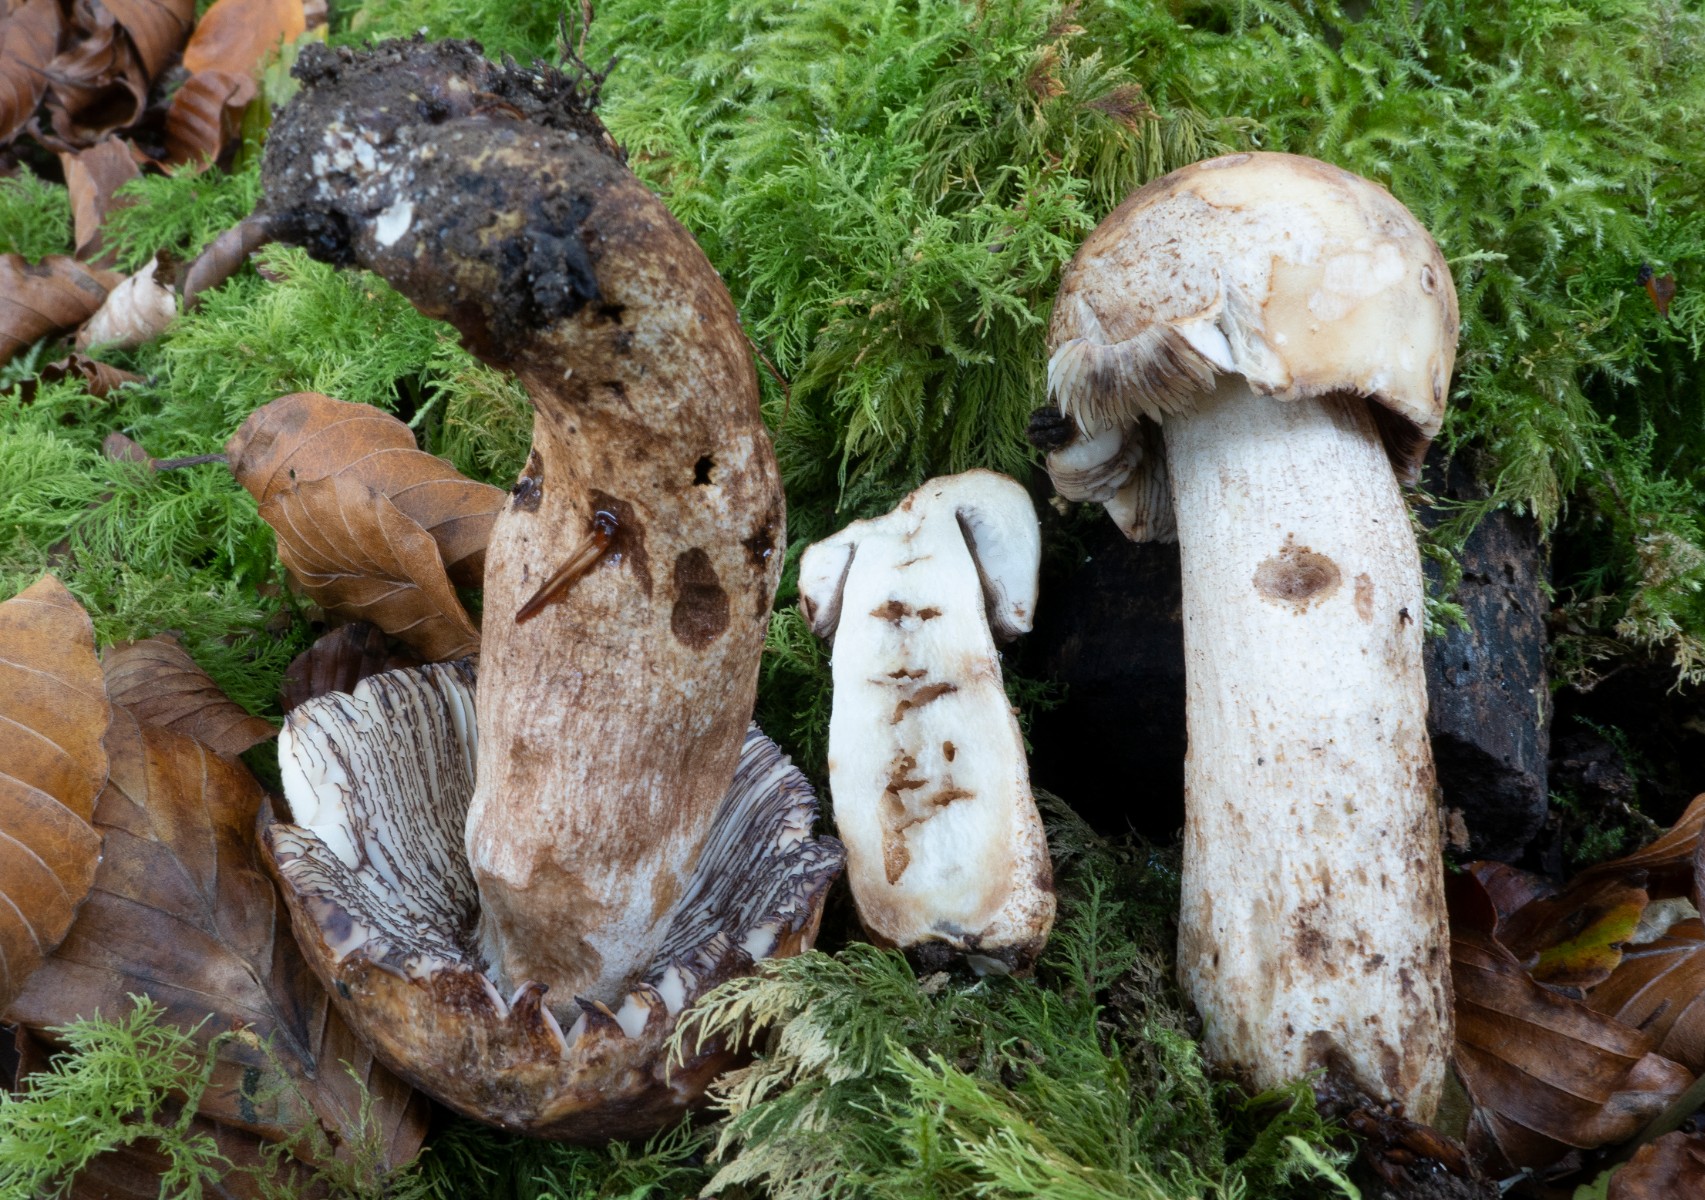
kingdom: Fungi
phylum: Basidiomycota
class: Agaricomycetes
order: Russulales
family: Russulaceae
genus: Russula
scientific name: Russula illota
